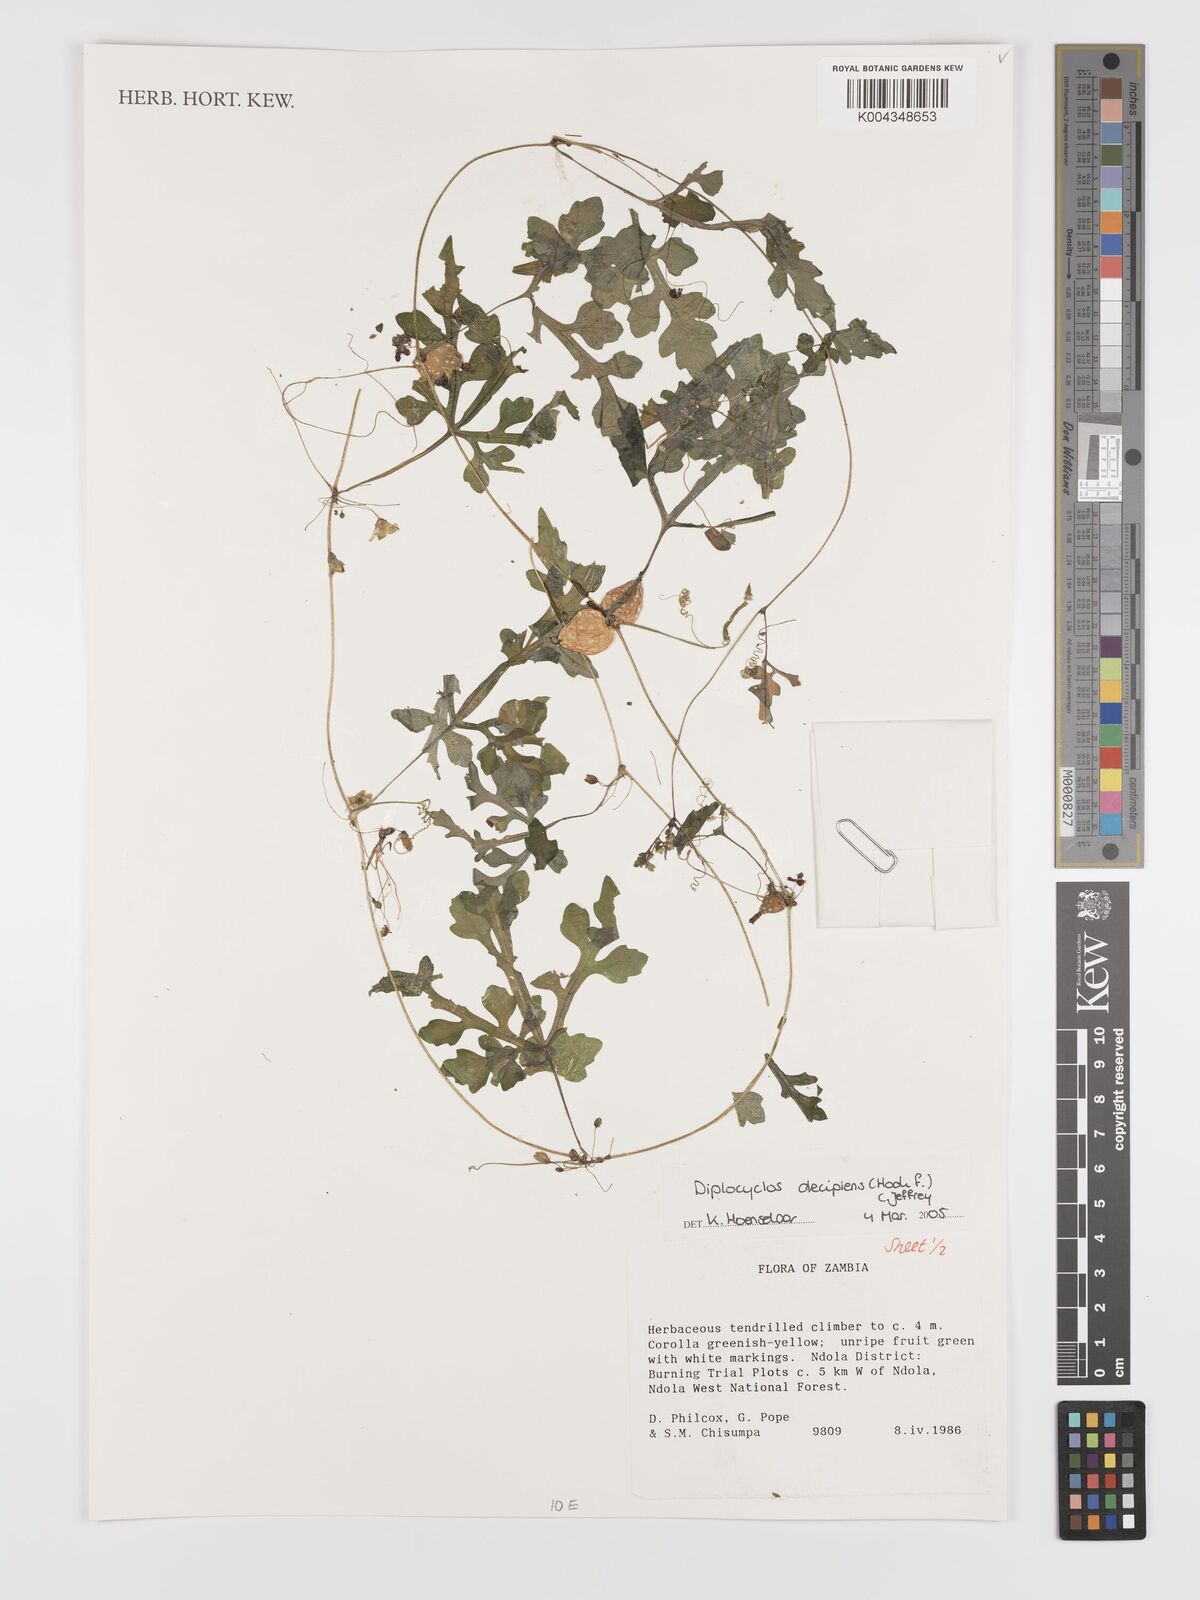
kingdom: Plantae
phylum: Tracheophyta
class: Magnoliopsida
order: Cucurbitales
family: Cucurbitaceae
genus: Diplocyclos
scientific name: Diplocyclos decipiens
